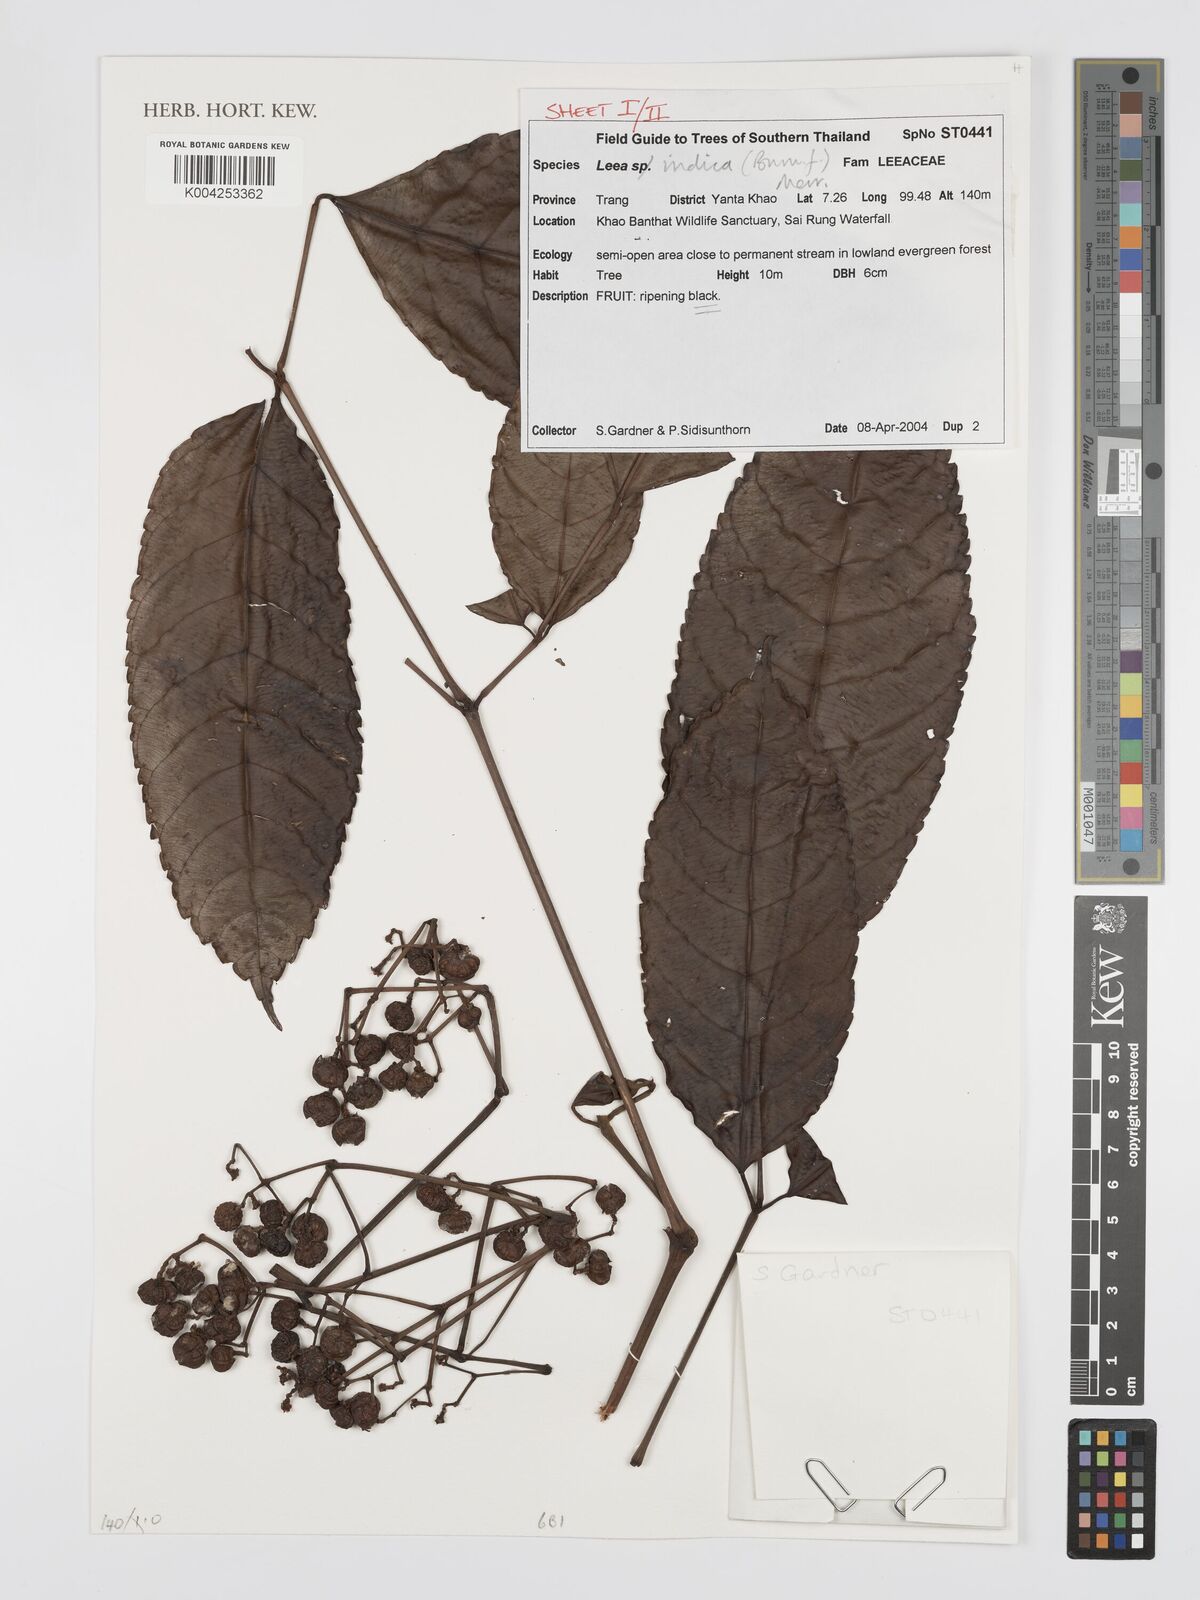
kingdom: Plantae
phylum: Tracheophyta
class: Magnoliopsida
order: Vitales
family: Vitaceae
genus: Leea
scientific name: Leea indica
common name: Bandicoot-berry
